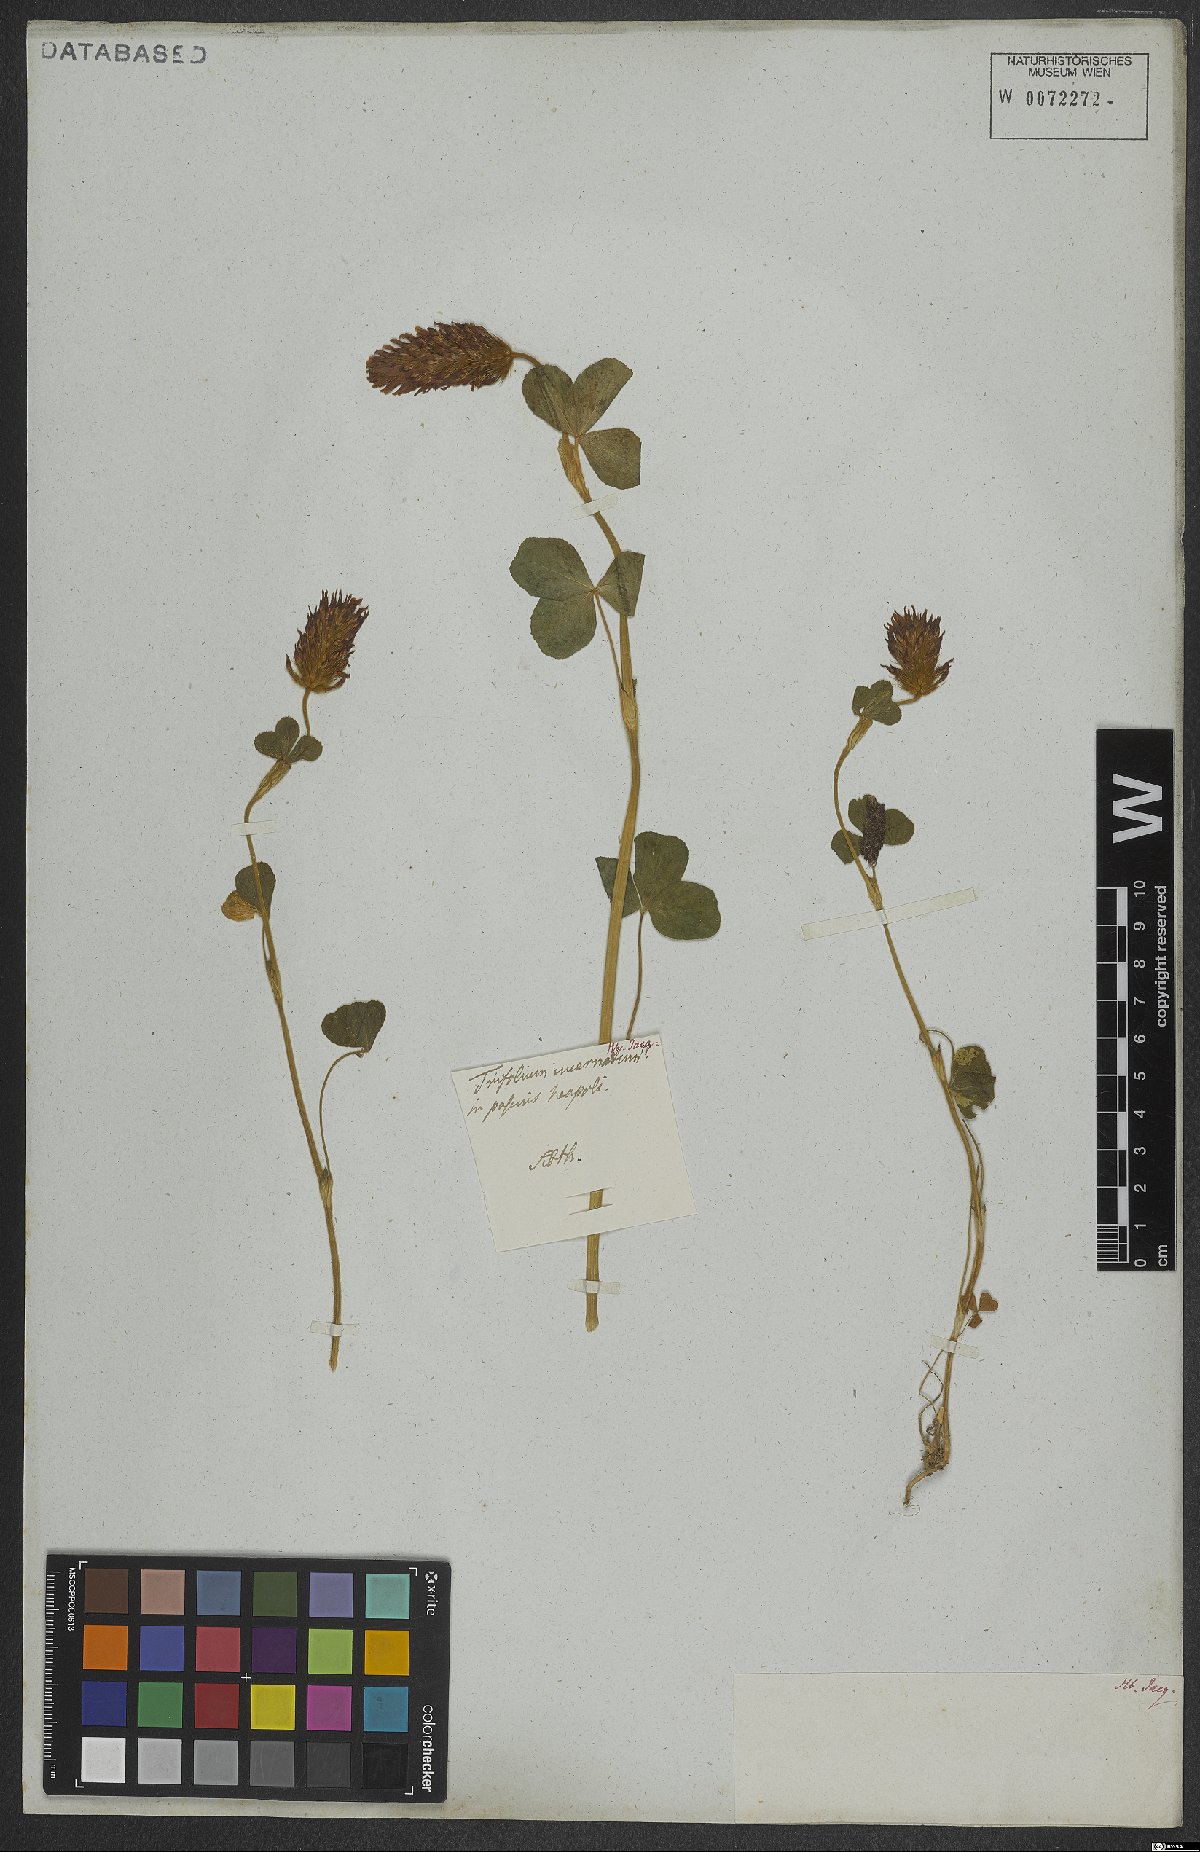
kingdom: Plantae
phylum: Tracheophyta
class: Magnoliopsida
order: Fabales
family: Fabaceae
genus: Trifolium
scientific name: Trifolium incarnatum
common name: Crimson clover
